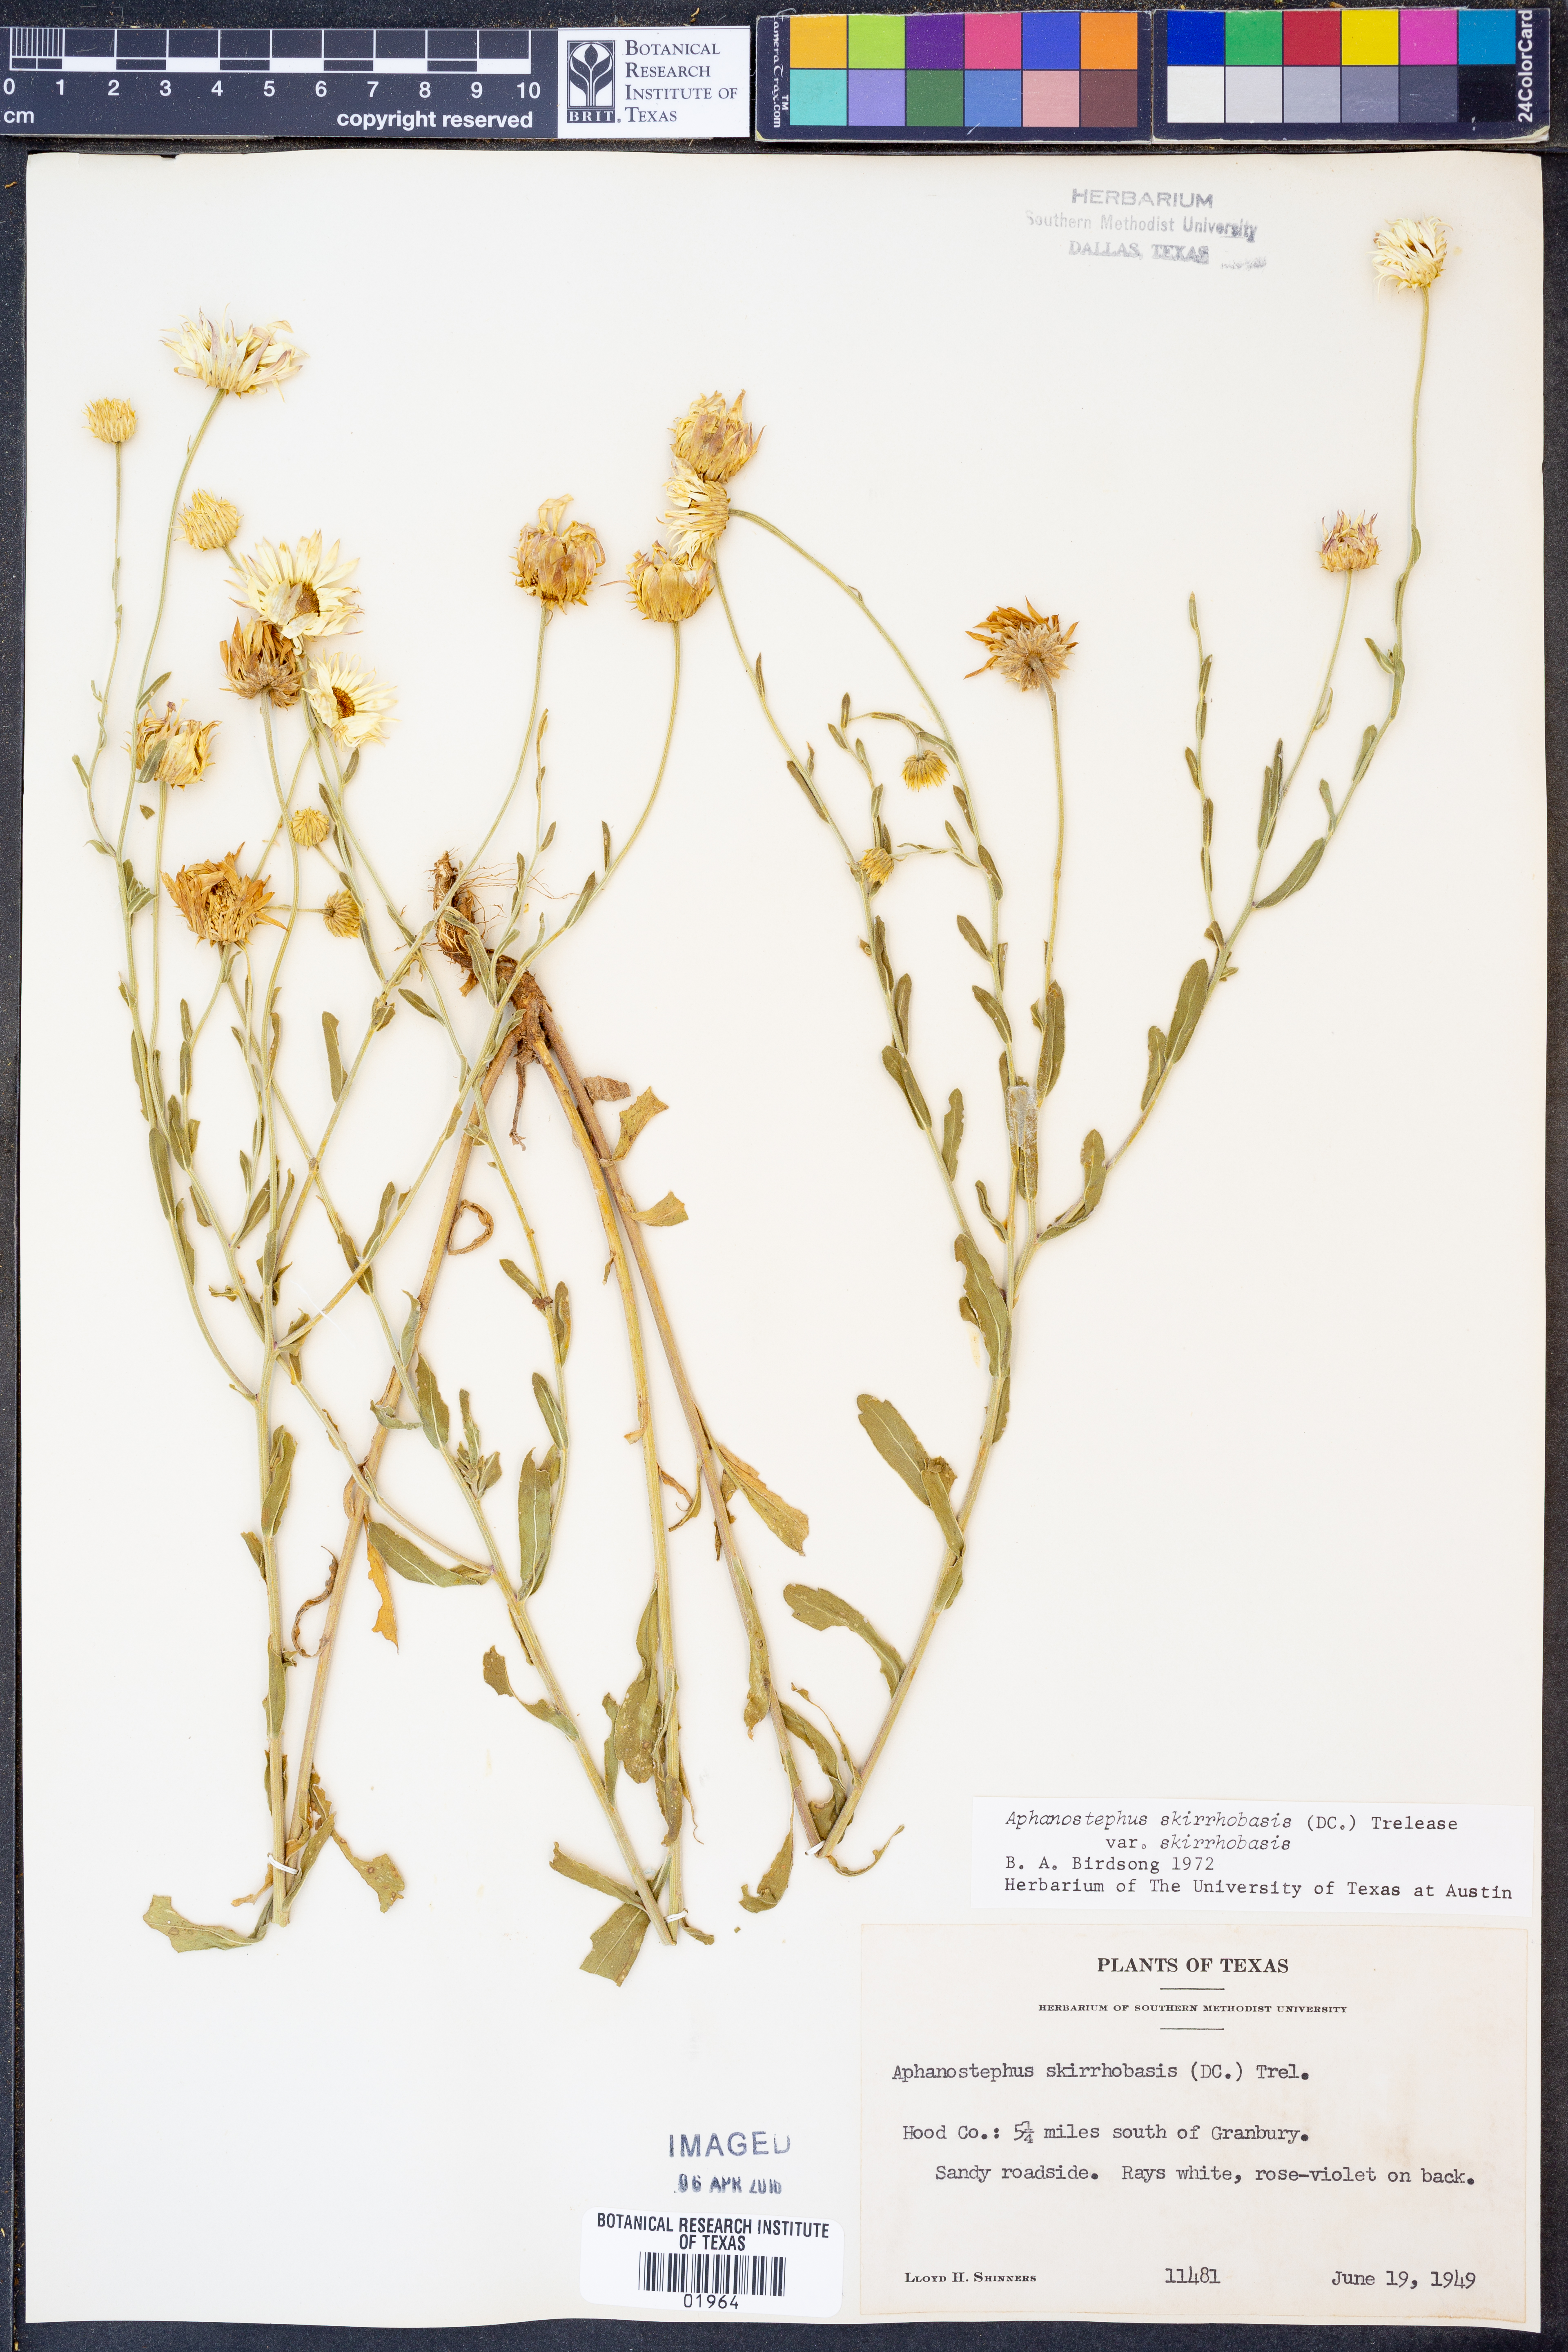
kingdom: Plantae
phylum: Tracheophyta
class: Magnoliopsida
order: Asterales
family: Asteraceae
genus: Aphanostephus
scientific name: Aphanostephus skirrhobasis
